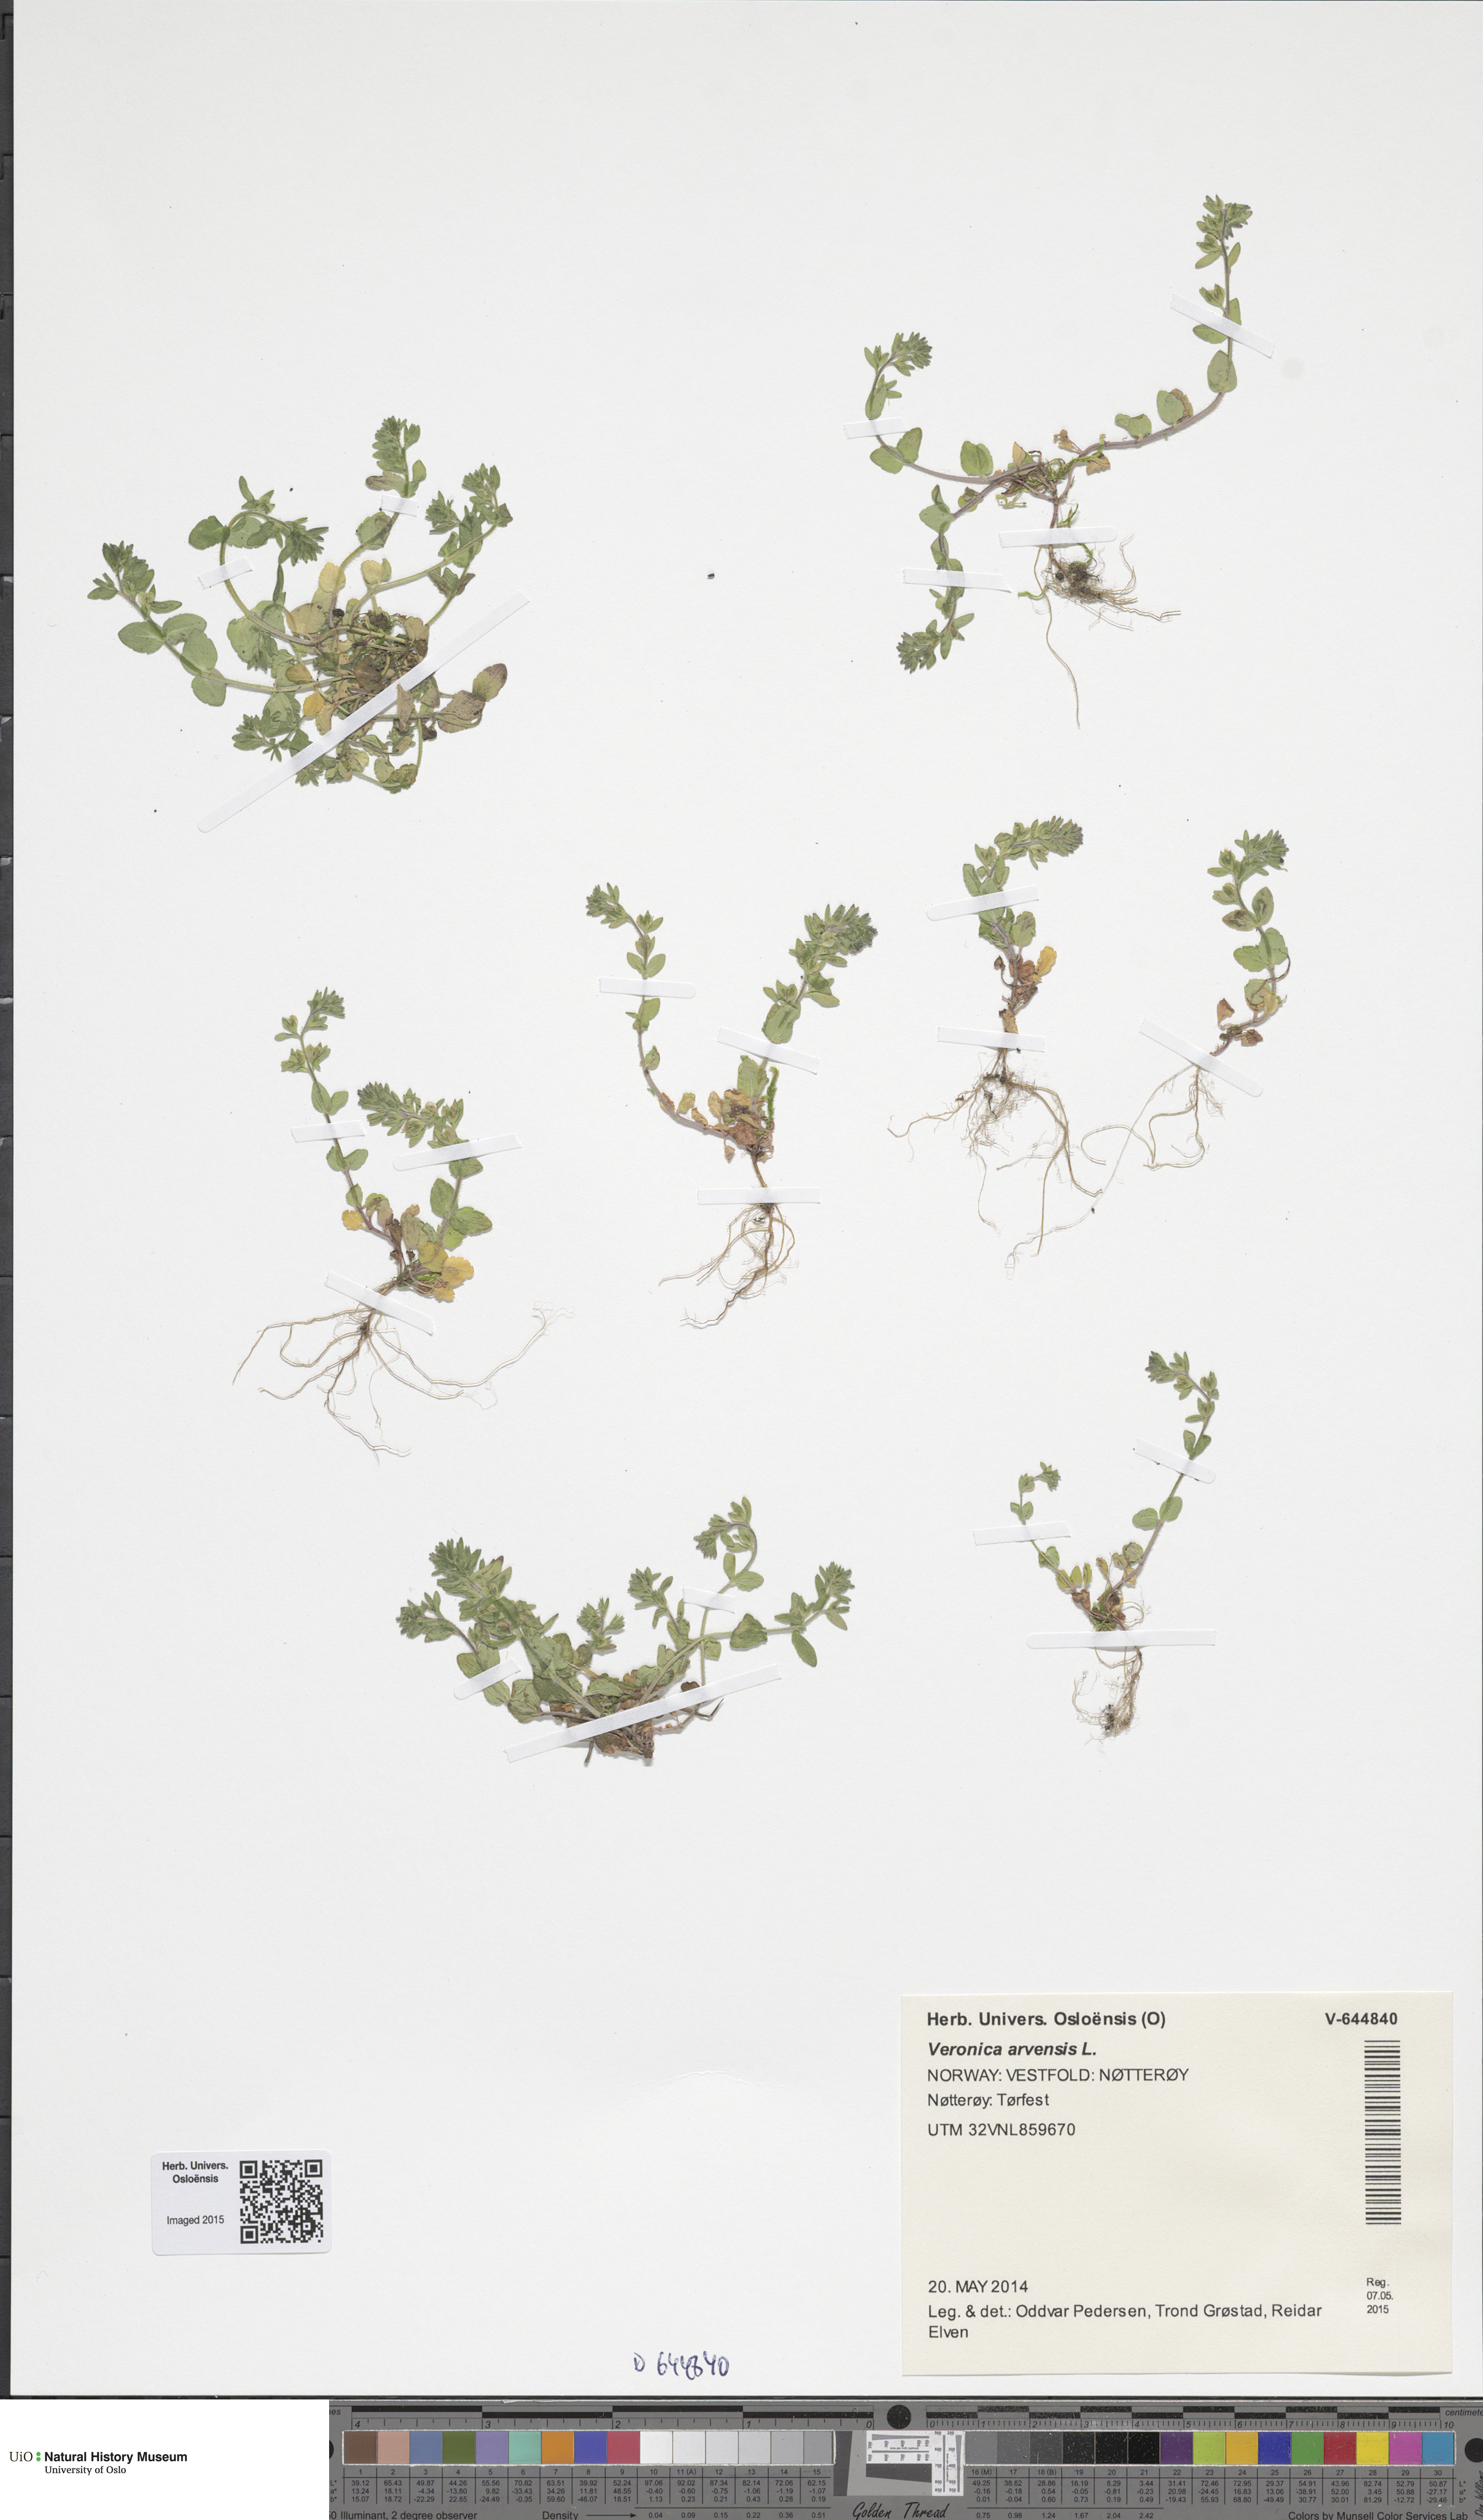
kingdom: Plantae
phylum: Tracheophyta
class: Magnoliopsida
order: Lamiales
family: Plantaginaceae
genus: Veronica
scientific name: Veronica arvensis
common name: Corn speedwell
